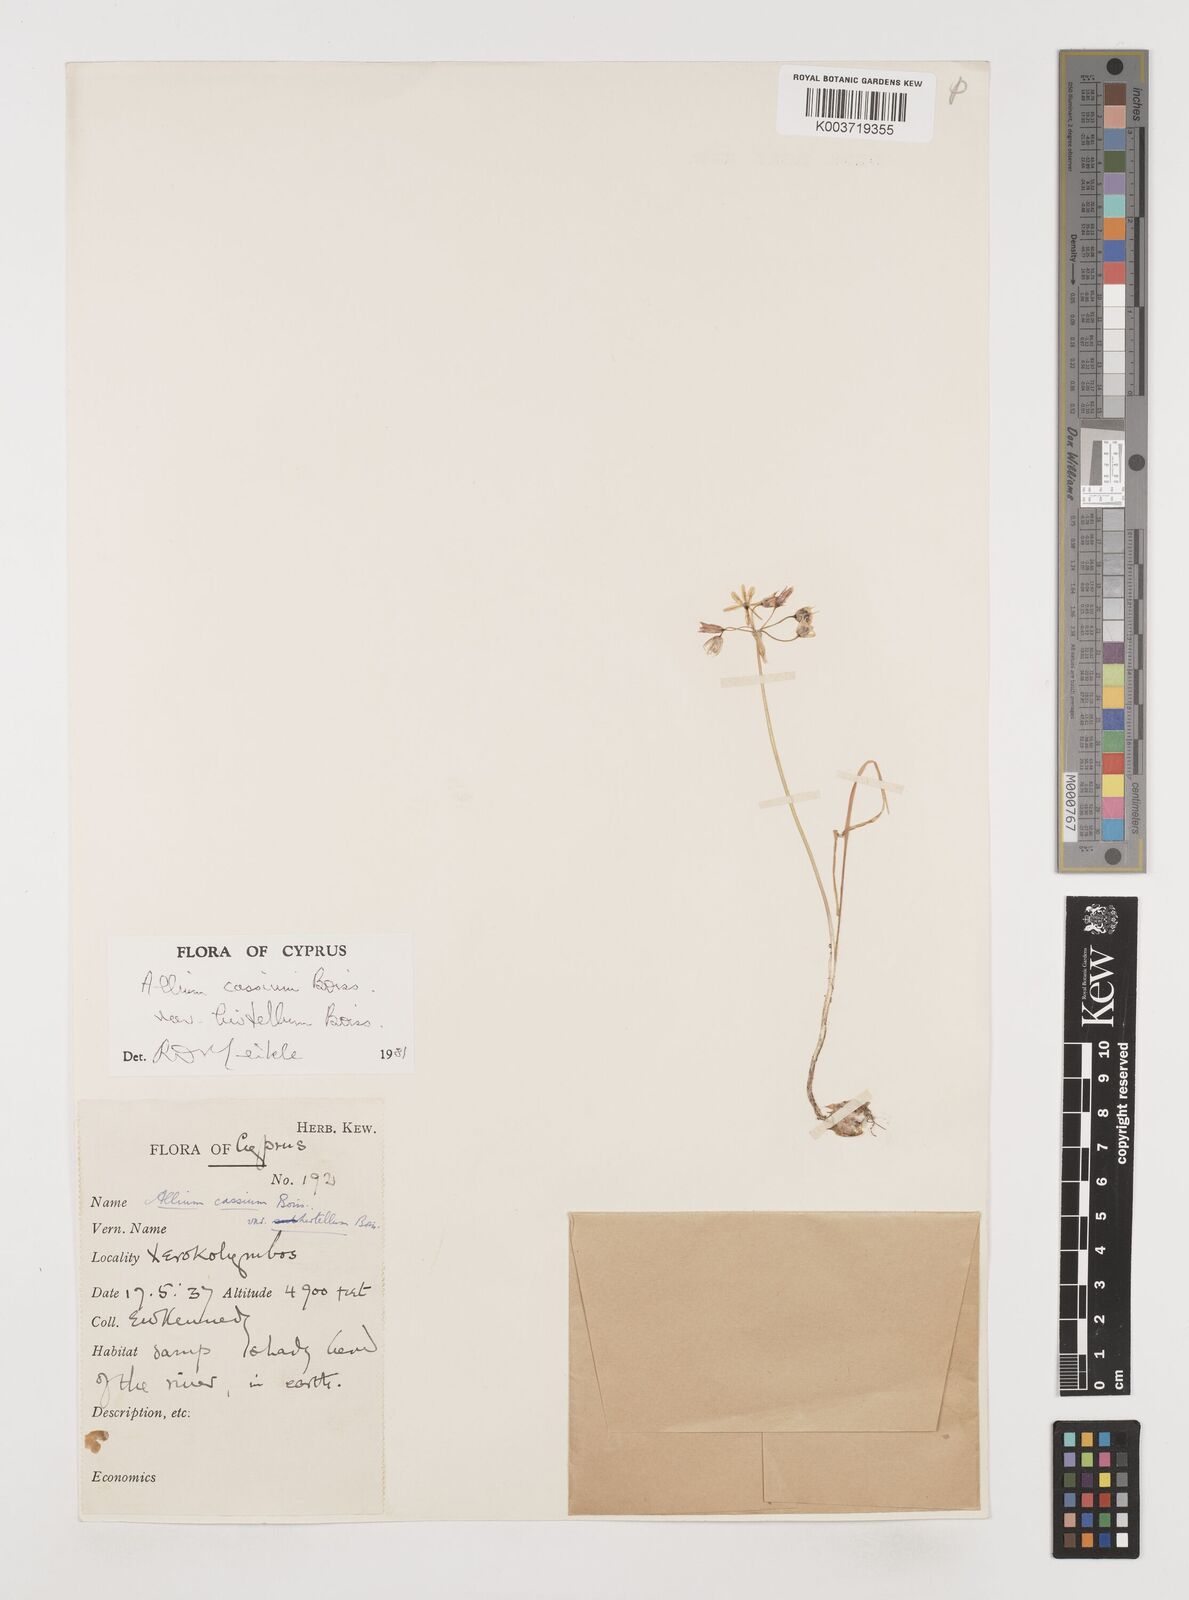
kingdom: Plantae
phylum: Tracheophyta
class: Liliopsida
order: Asparagales
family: Amaryllidaceae
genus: Allium
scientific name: Allium cassium
